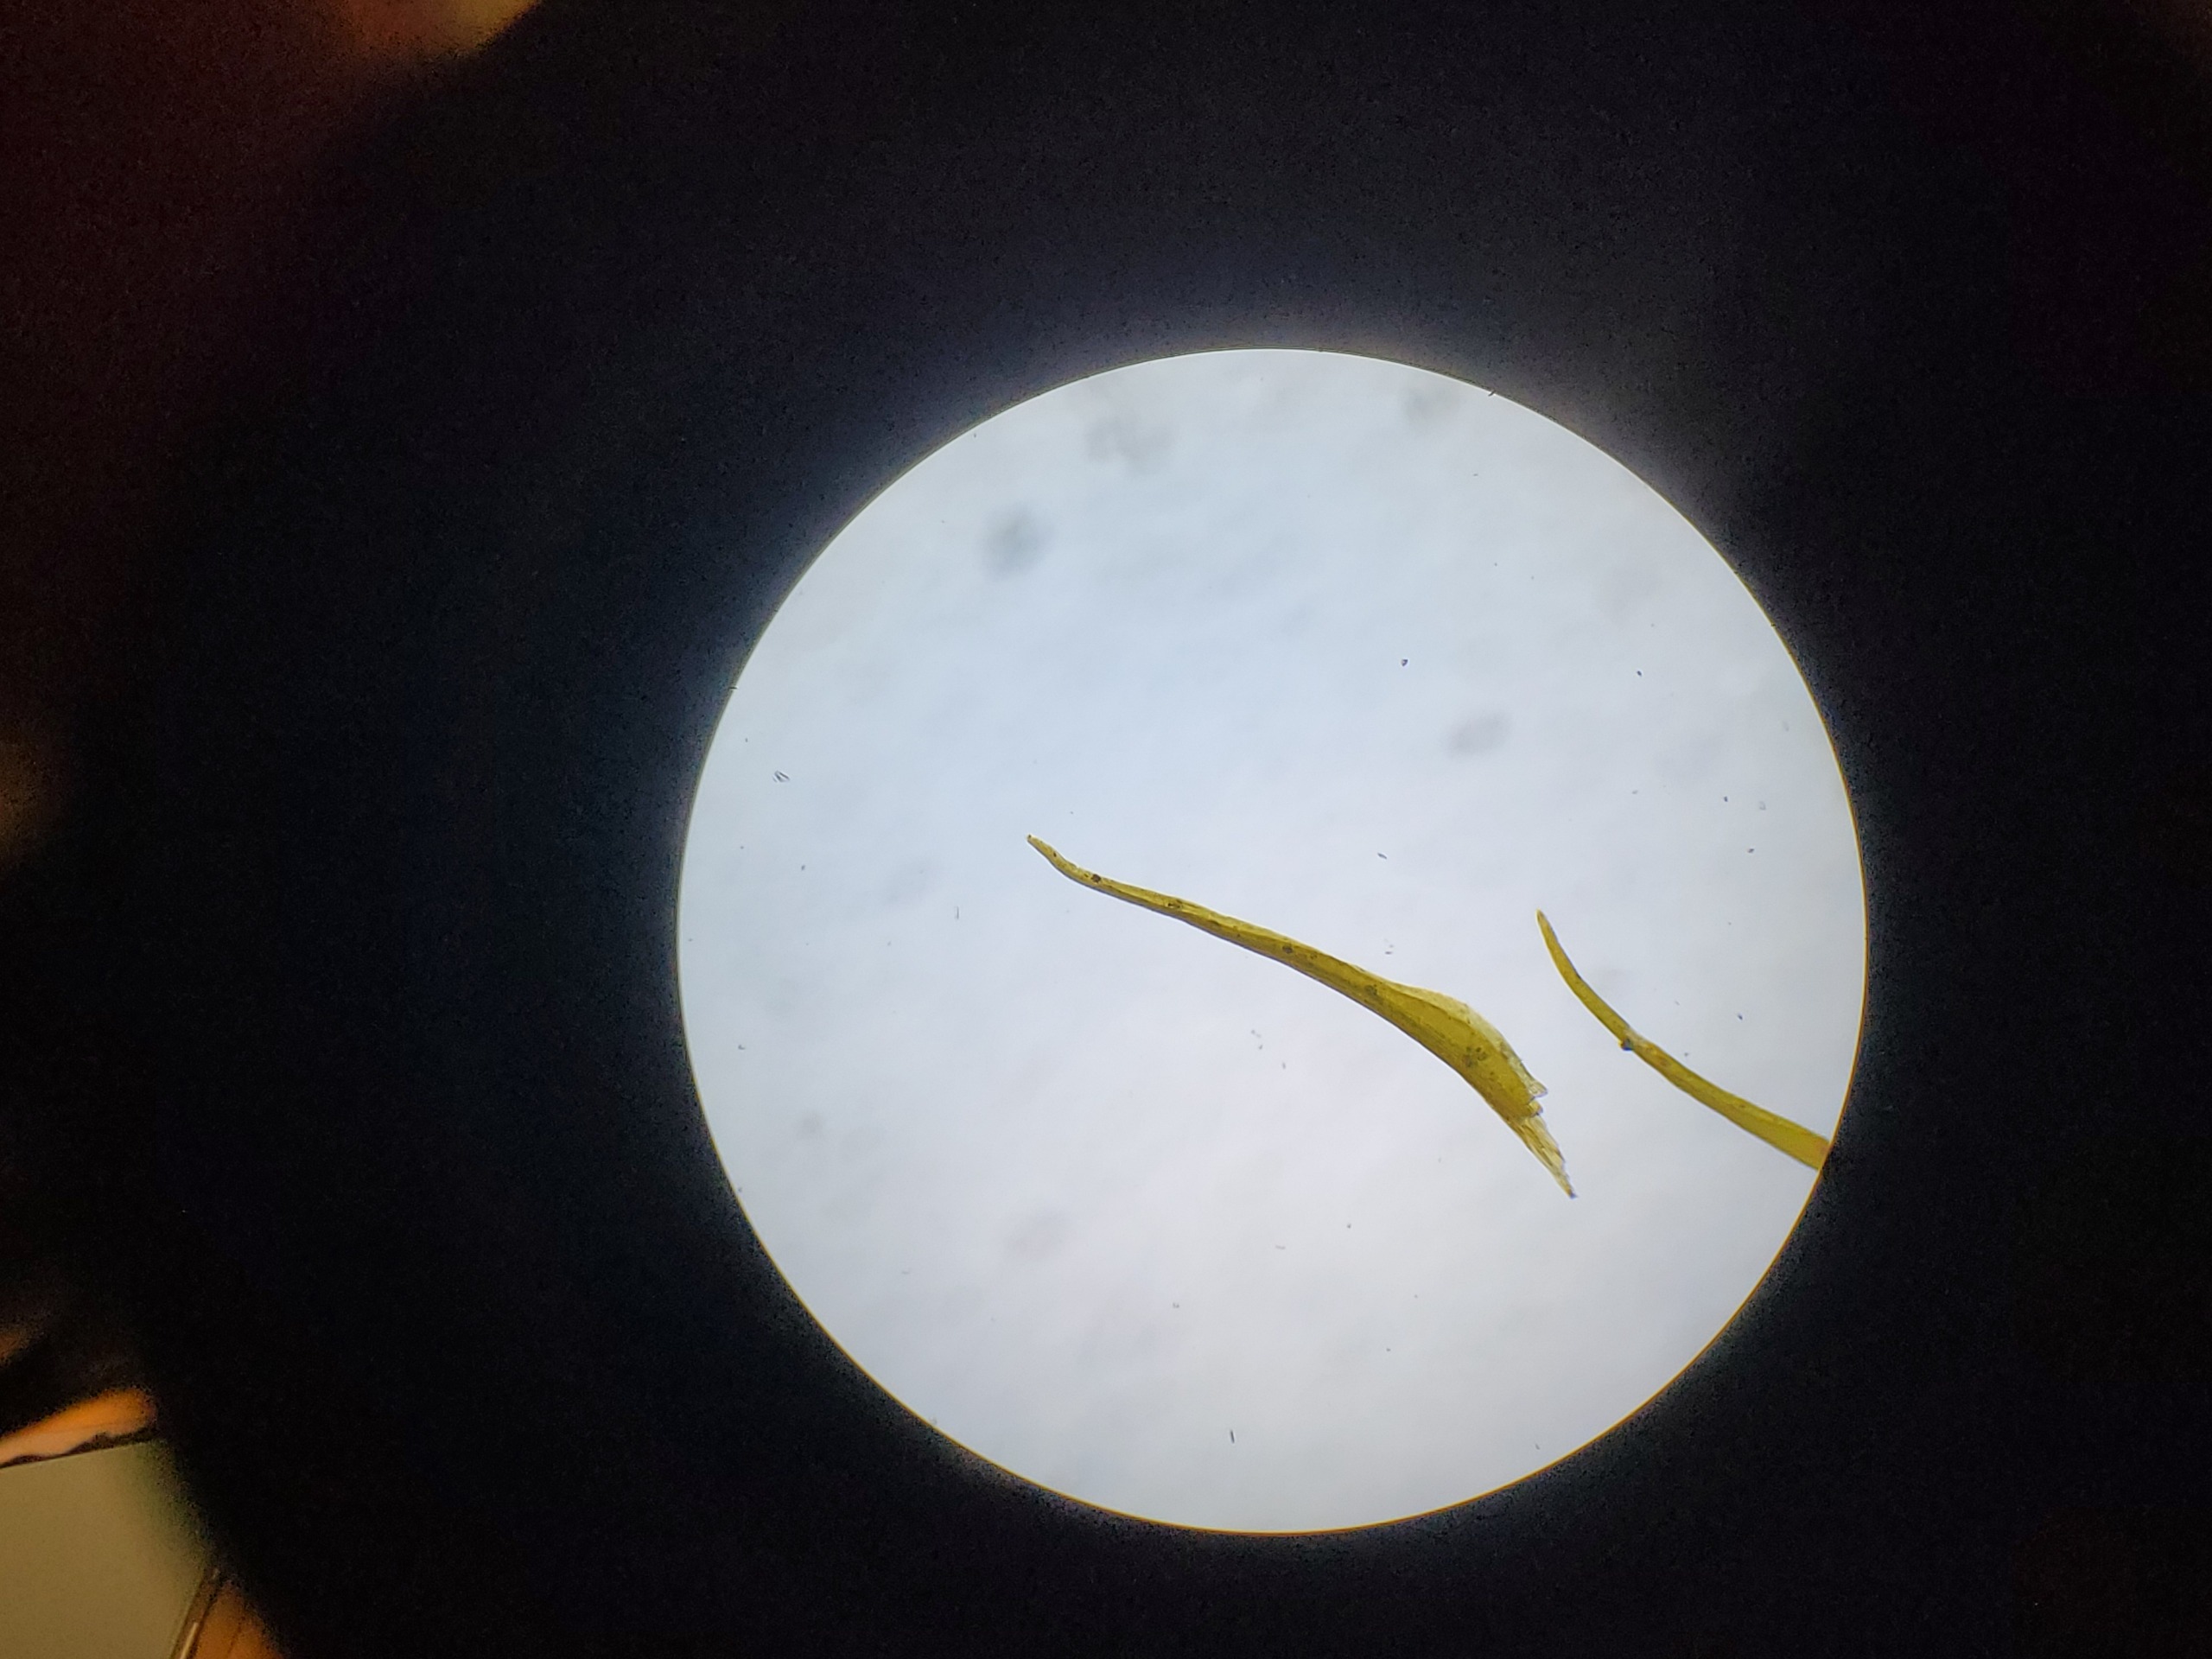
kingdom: Plantae
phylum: Bryophyta
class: Bryopsida
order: Scouleriales
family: Flexitrichaceae
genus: Flexitrichum
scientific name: Flexitrichum flexicaule
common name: Kalk-hårtand
